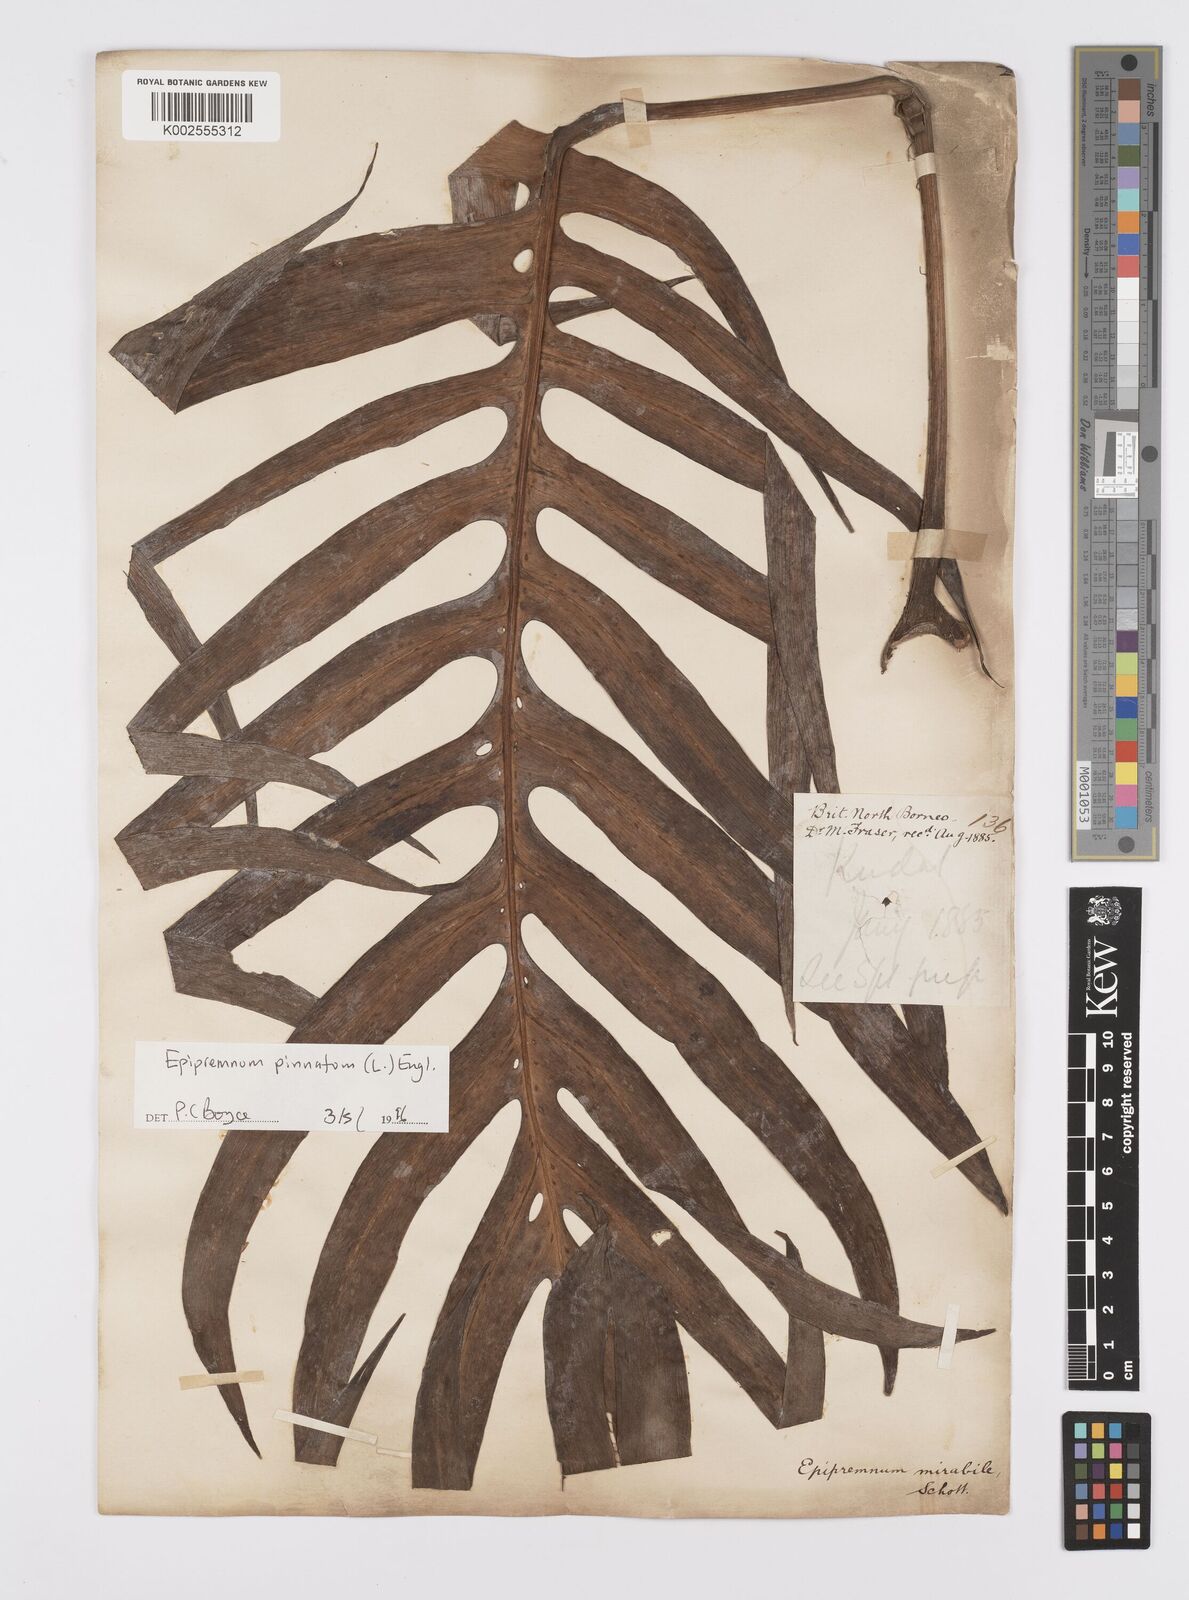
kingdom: Plantae
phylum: Tracheophyta
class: Liliopsida
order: Alismatales
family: Araceae
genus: Epipremnum
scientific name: Epipremnum pinnatum
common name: Centipede tongavine
